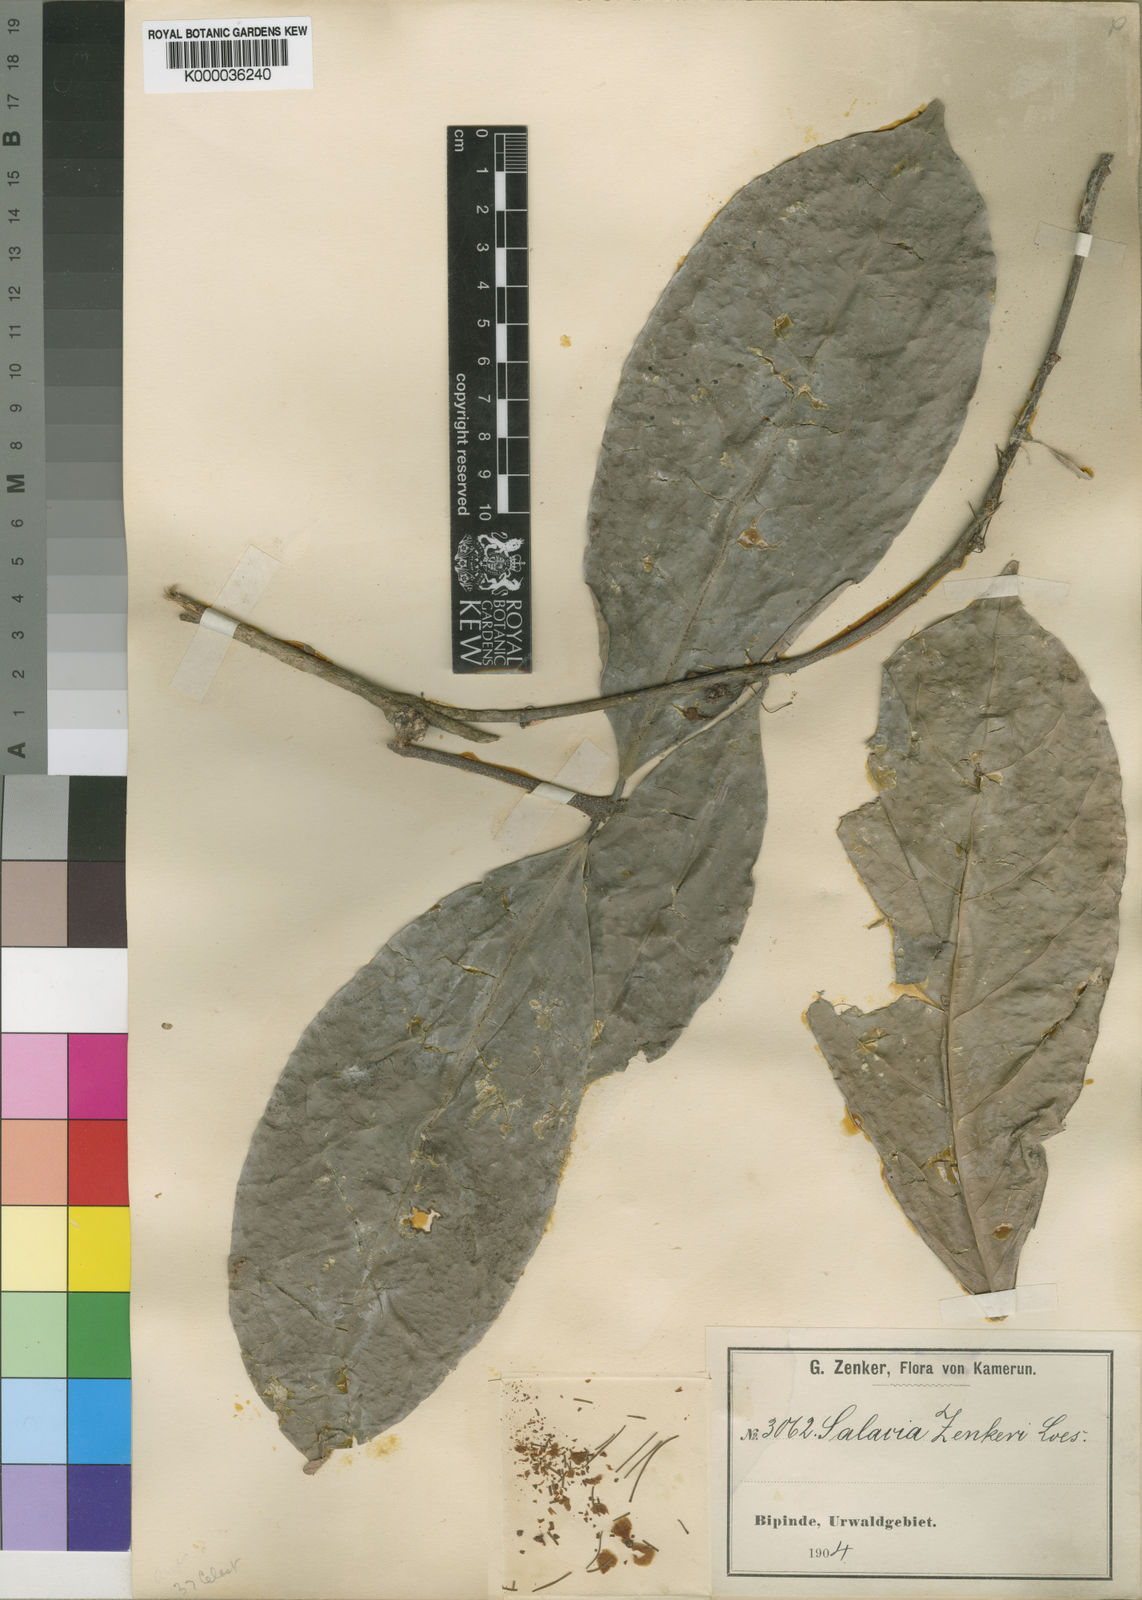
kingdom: Plantae
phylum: Tracheophyta
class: Magnoliopsida
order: Celastrales
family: Celastraceae
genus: Salacia
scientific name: Salacia zenkeri
